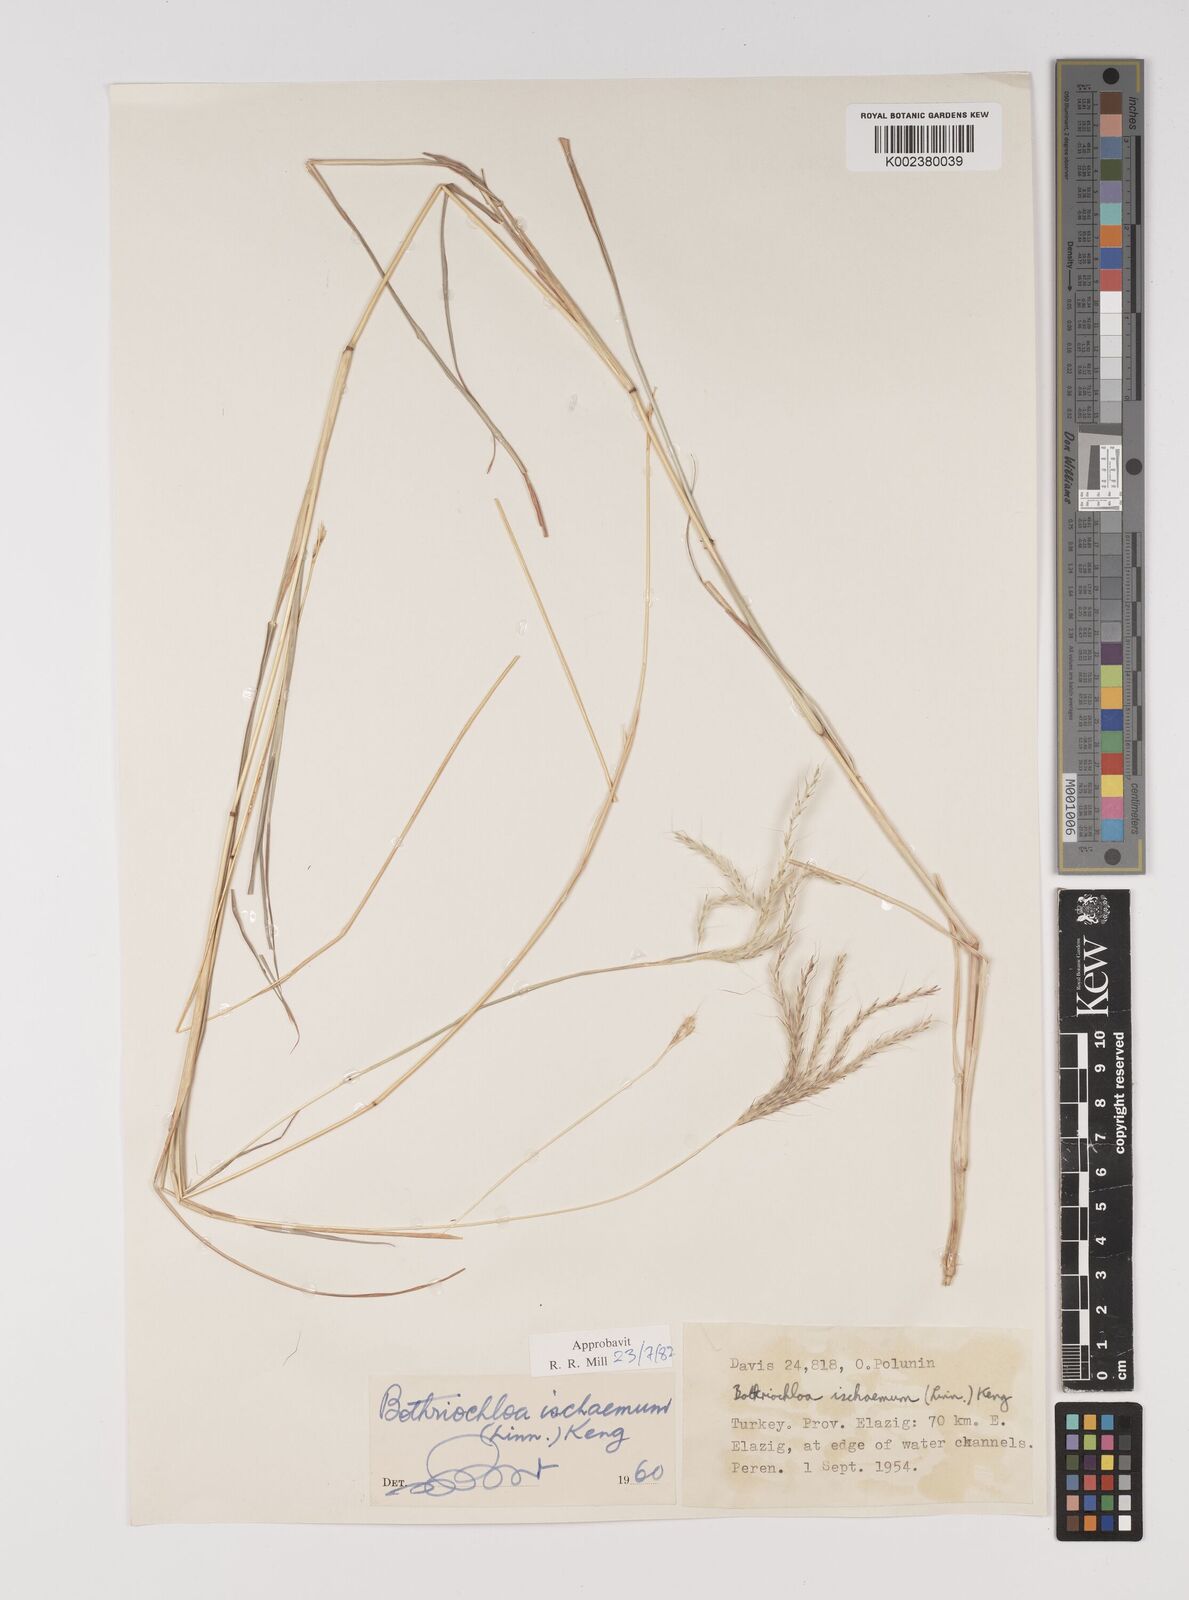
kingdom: Plantae
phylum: Tracheophyta
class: Liliopsida
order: Poales
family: Poaceae
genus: Bothriochloa
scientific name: Bothriochloa ischaemum
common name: Yellow bluestem
